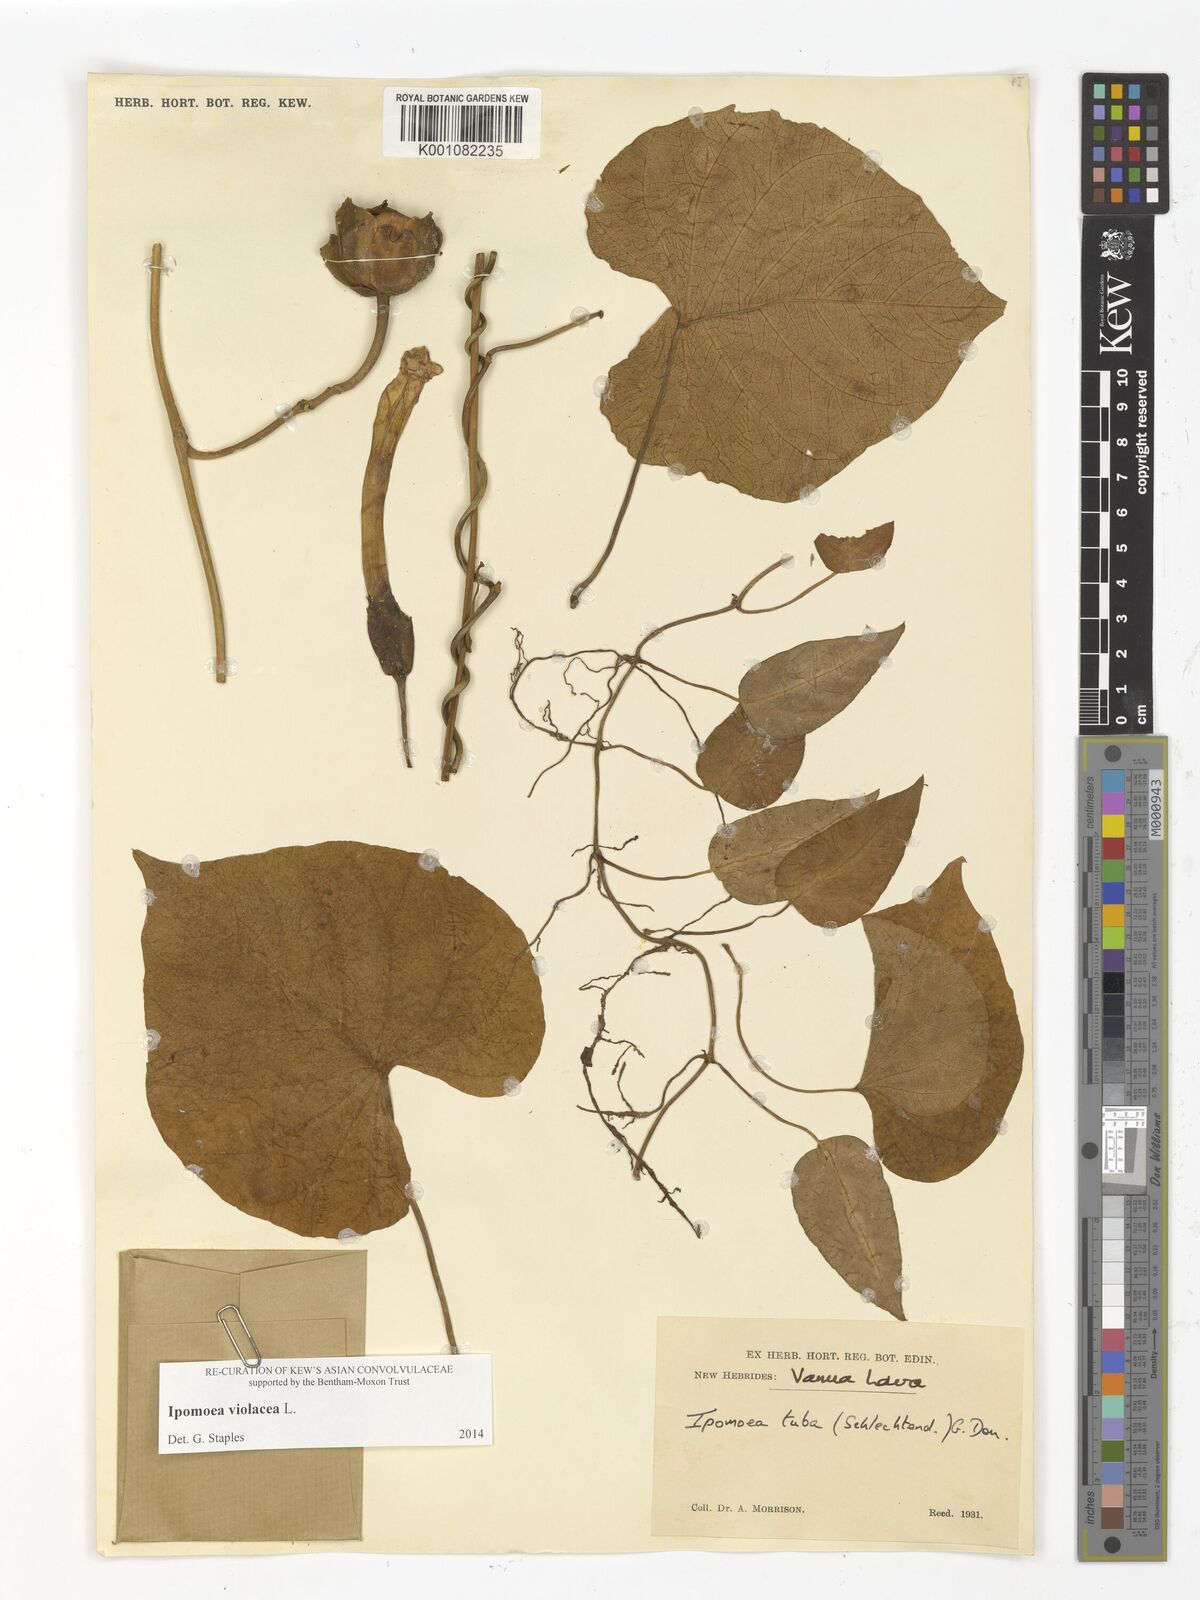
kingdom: Plantae
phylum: Tracheophyta
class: Magnoliopsida
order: Solanales
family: Convolvulaceae
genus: Ipomoea
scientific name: Ipomoea violacea
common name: Beach moonflower
